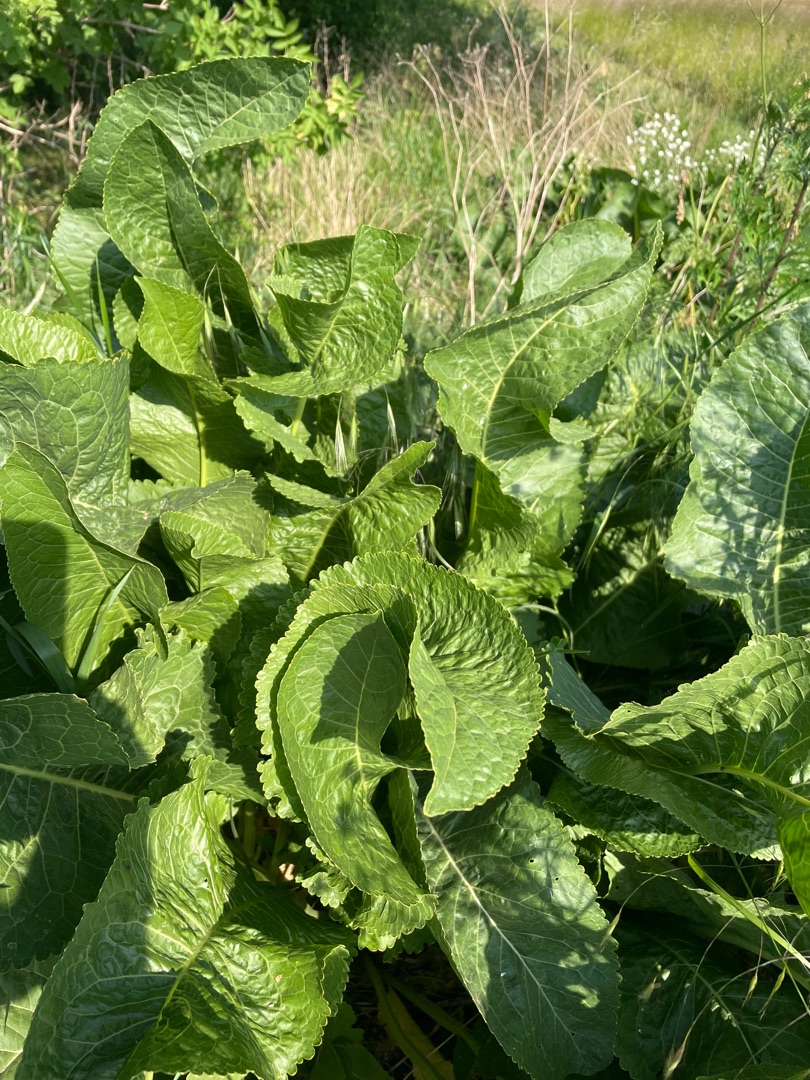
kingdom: Plantae
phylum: Tracheophyta
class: Magnoliopsida
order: Brassicales
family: Brassicaceae
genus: Armoracia
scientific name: Armoracia rusticana
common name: Peberrod
